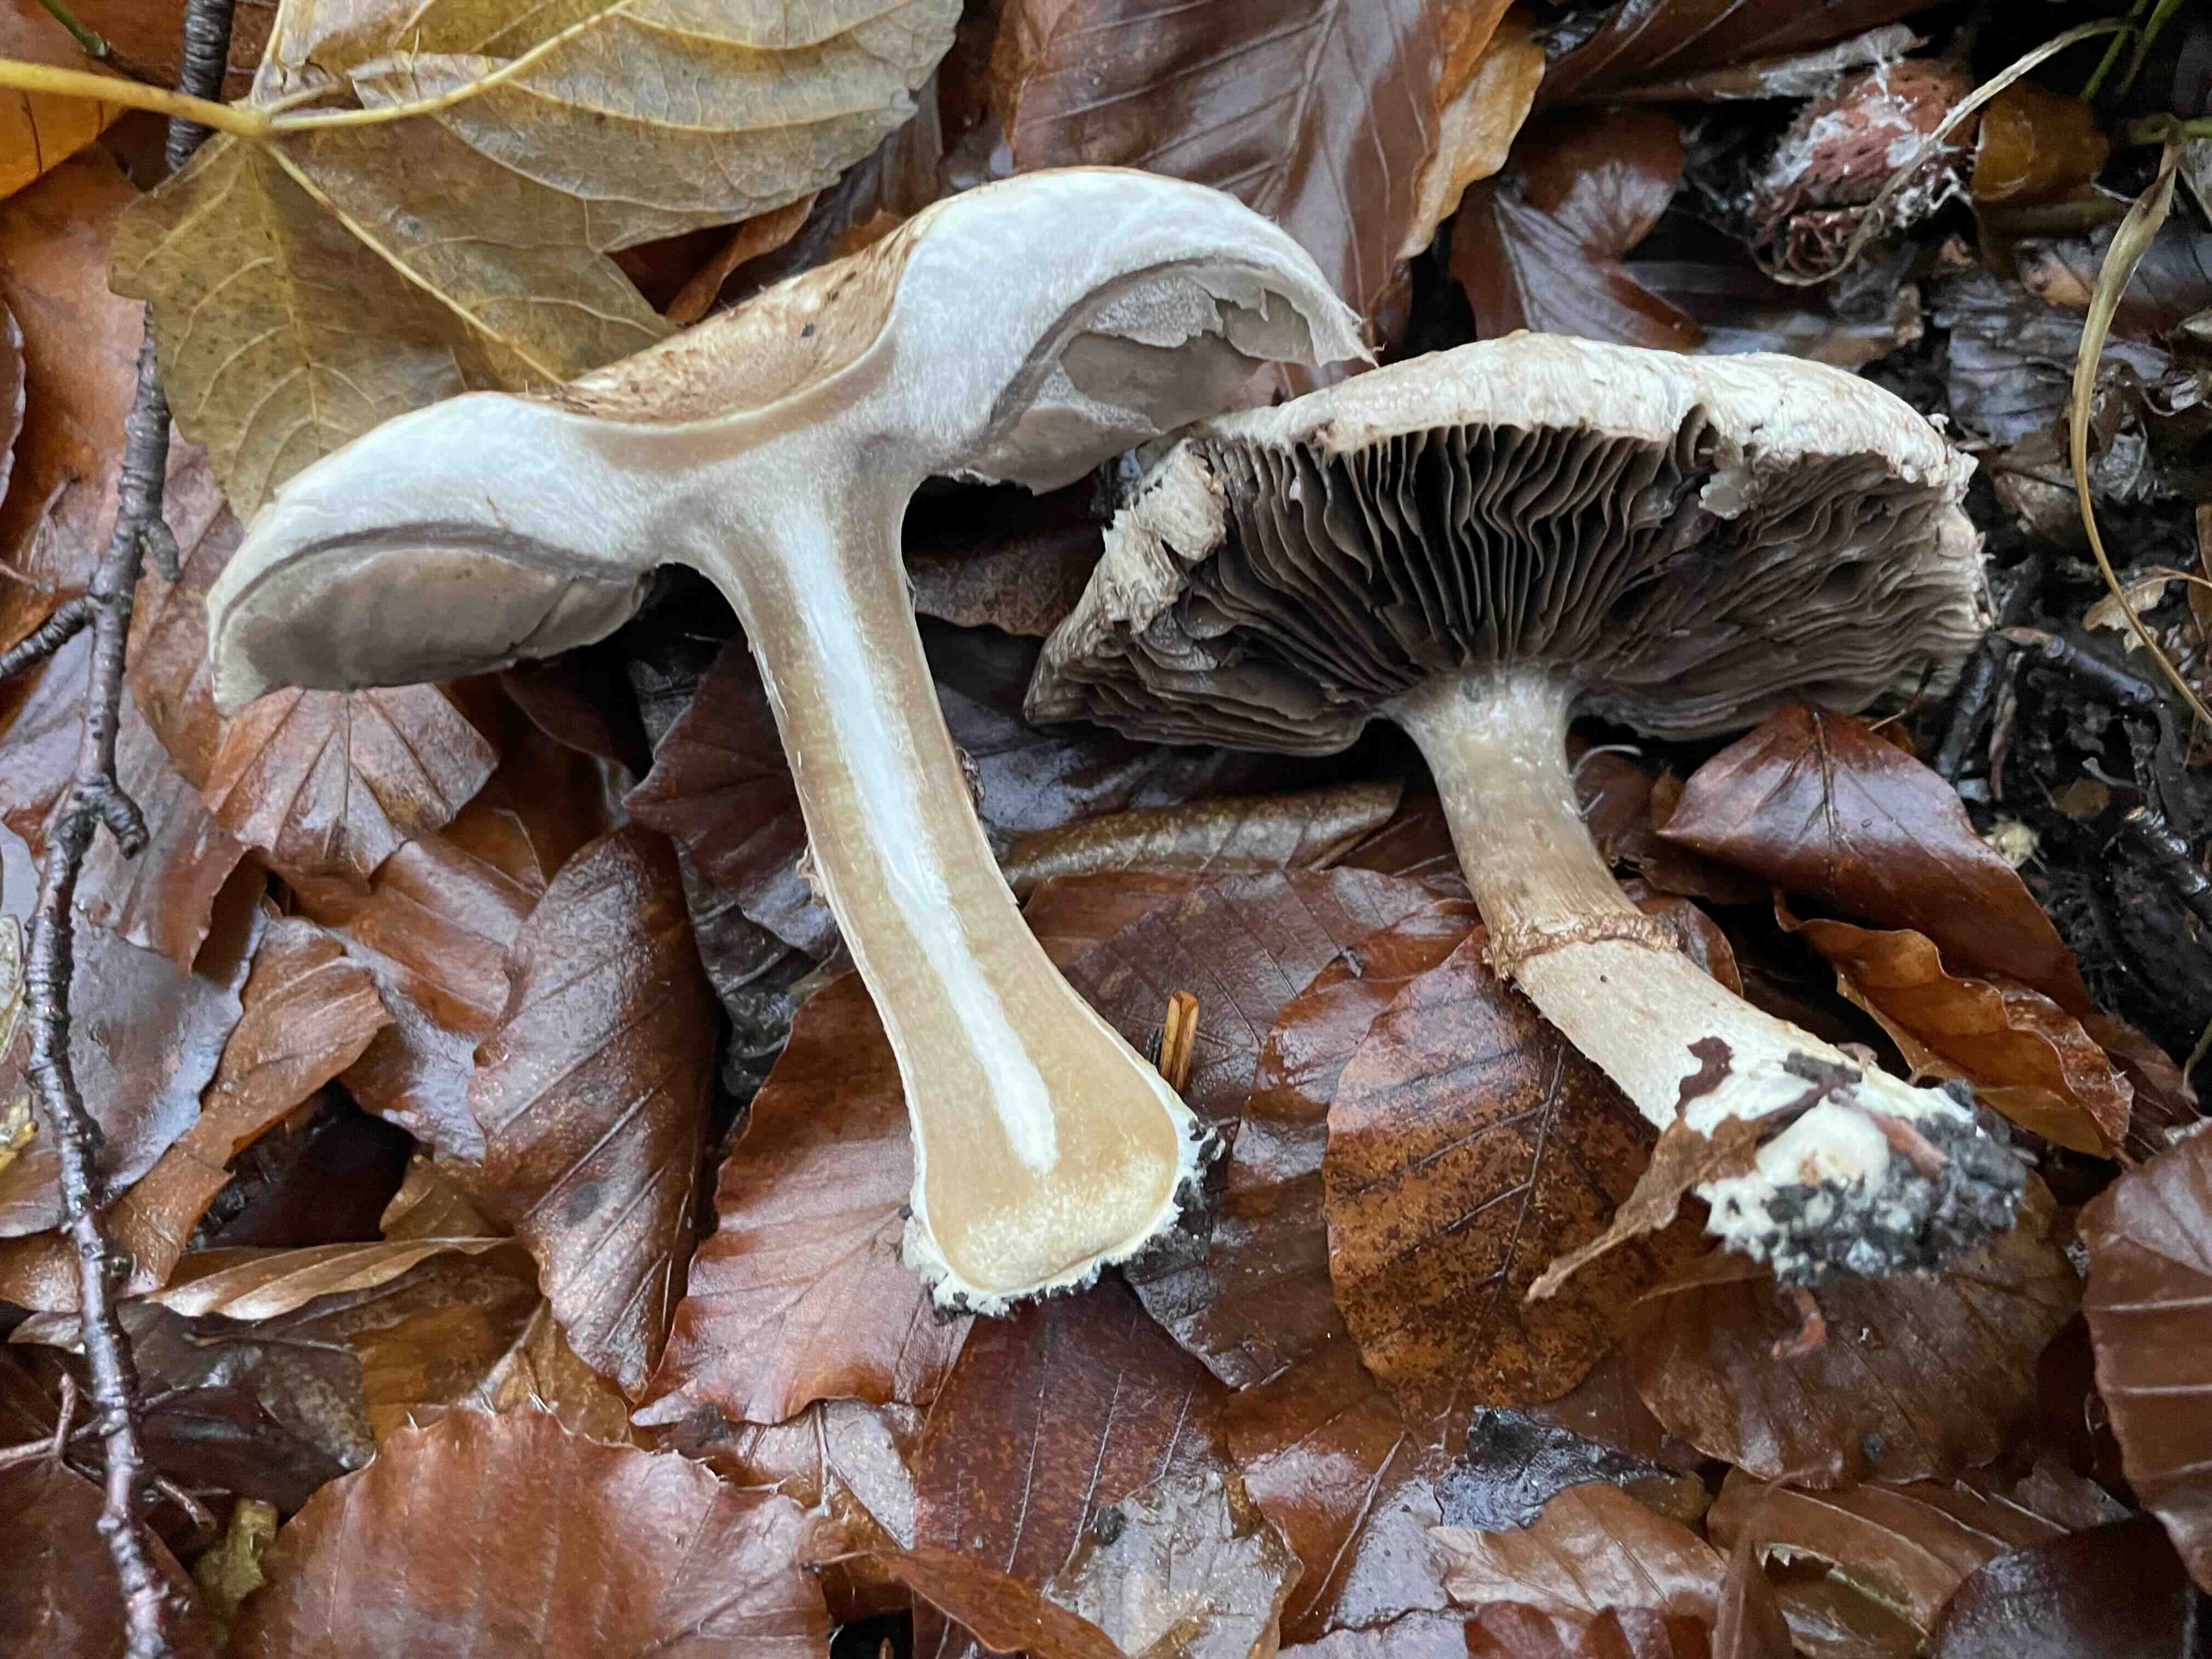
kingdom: Fungi
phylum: Basidiomycota
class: Agaricomycetes
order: Agaricales
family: Agaricaceae
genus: Agaricus
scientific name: Agaricus
